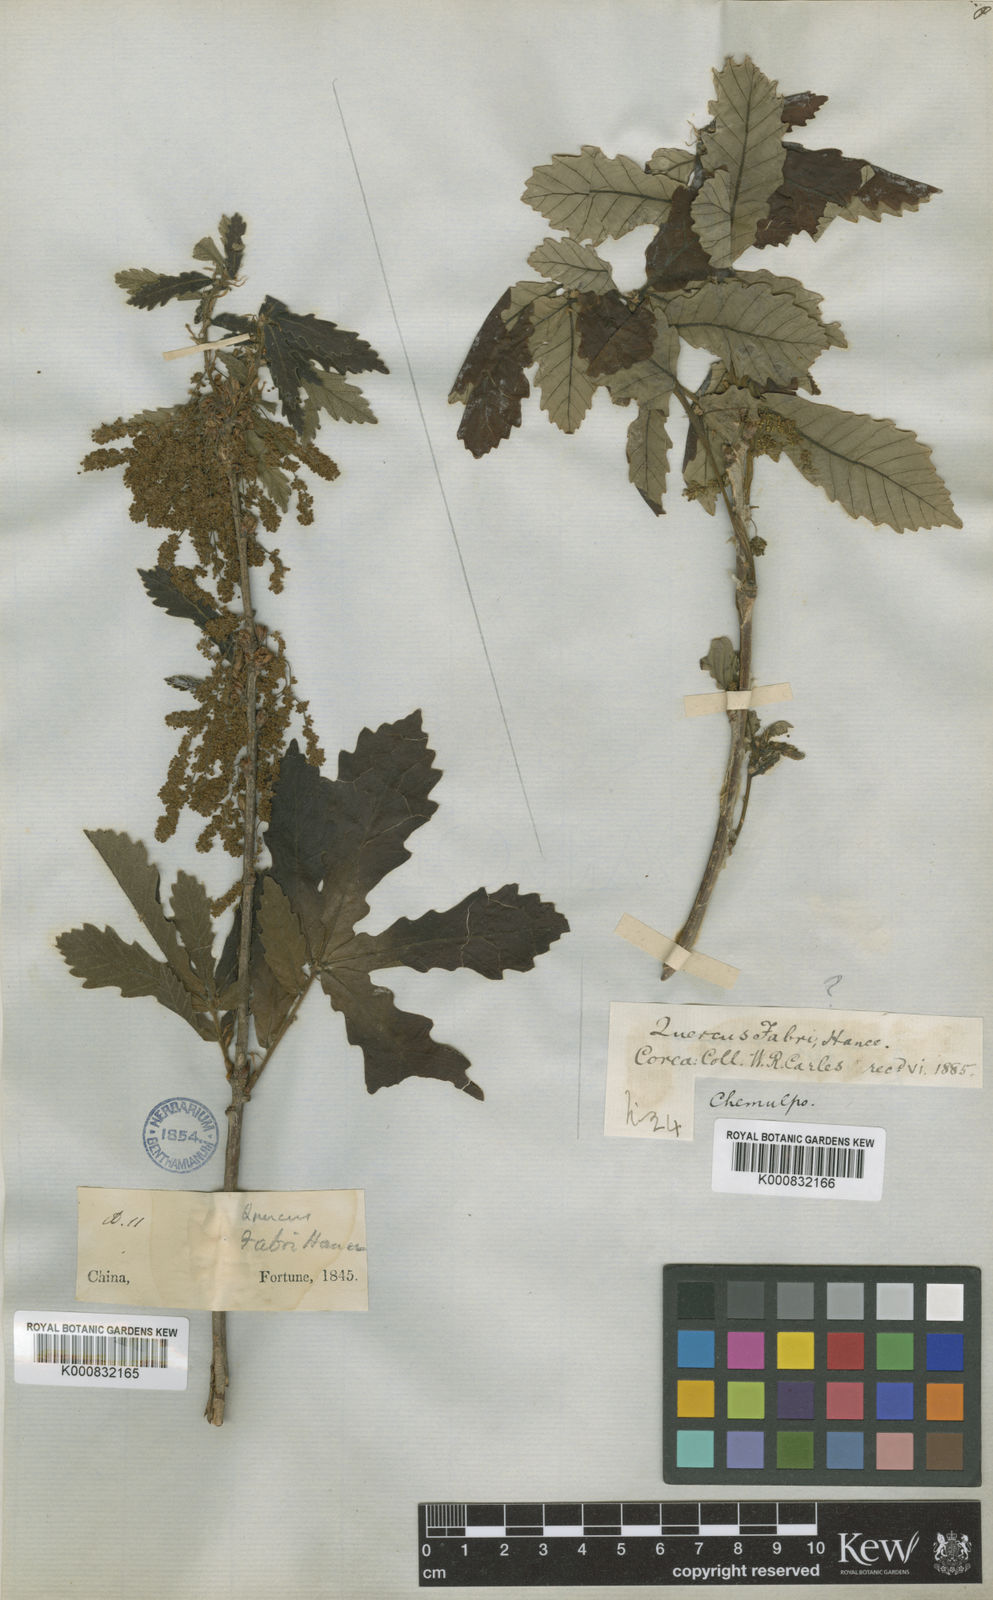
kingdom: Plantae
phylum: Tracheophyta
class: Magnoliopsida
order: Fagales
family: Fagaceae
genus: Quercus
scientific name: Quercus fabrei
